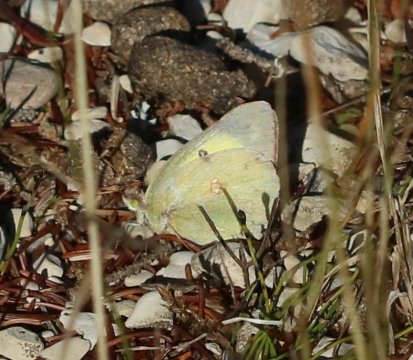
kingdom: Animalia
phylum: Arthropoda
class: Insecta
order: Lepidoptera
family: Pieridae
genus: Colias
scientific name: Colias philodice
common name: Clouded Sulphur
